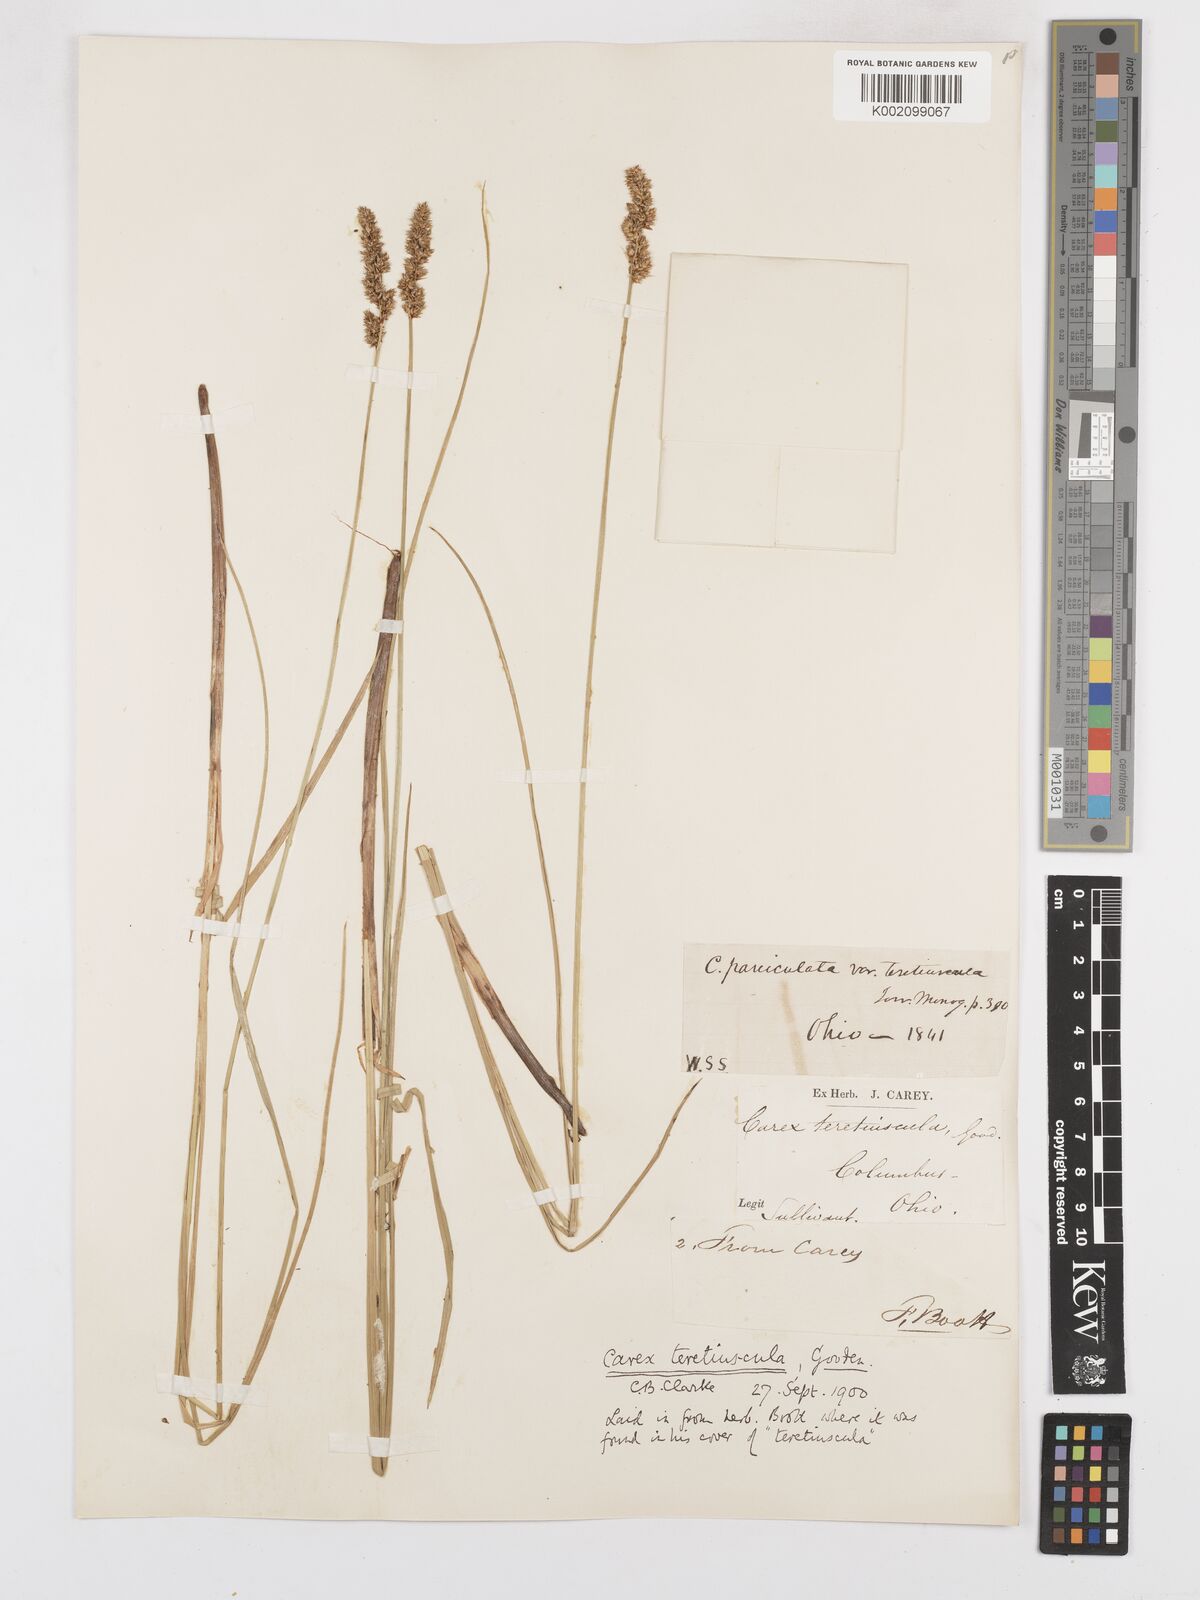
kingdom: Plantae
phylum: Tracheophyta
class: Liliopsida
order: Poales
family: Cyperaceae
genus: Carex
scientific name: Carex diandra
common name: Lesser tussock-sedge
